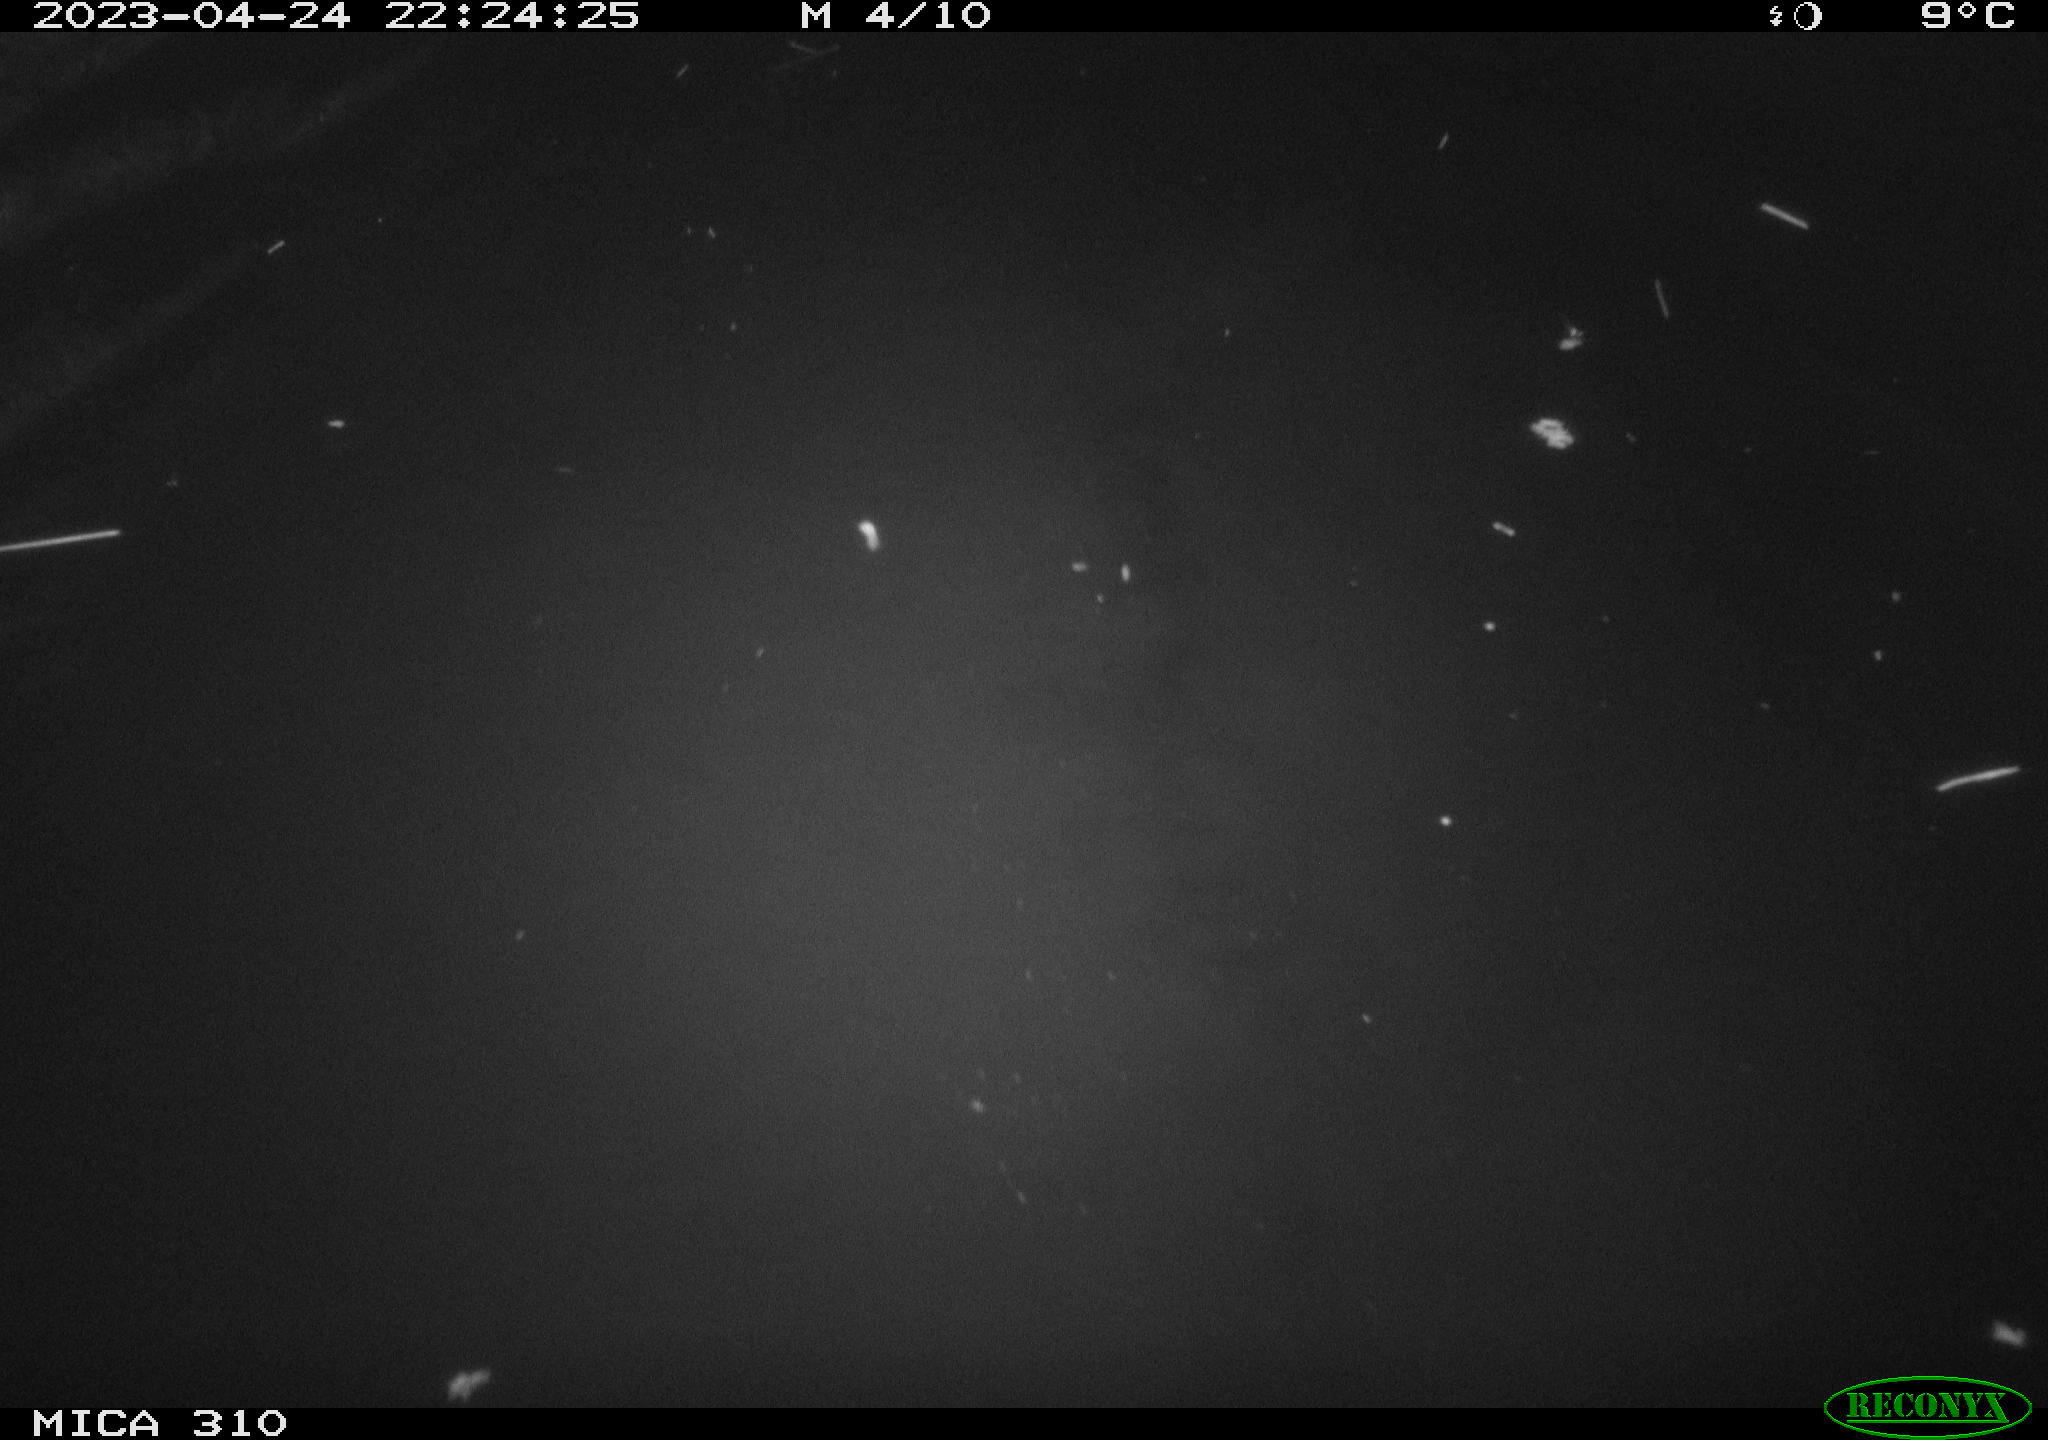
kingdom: Animalia
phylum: Chordata
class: Aves
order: Anseriformes
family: Anatidae
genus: Anas
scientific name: Anas
